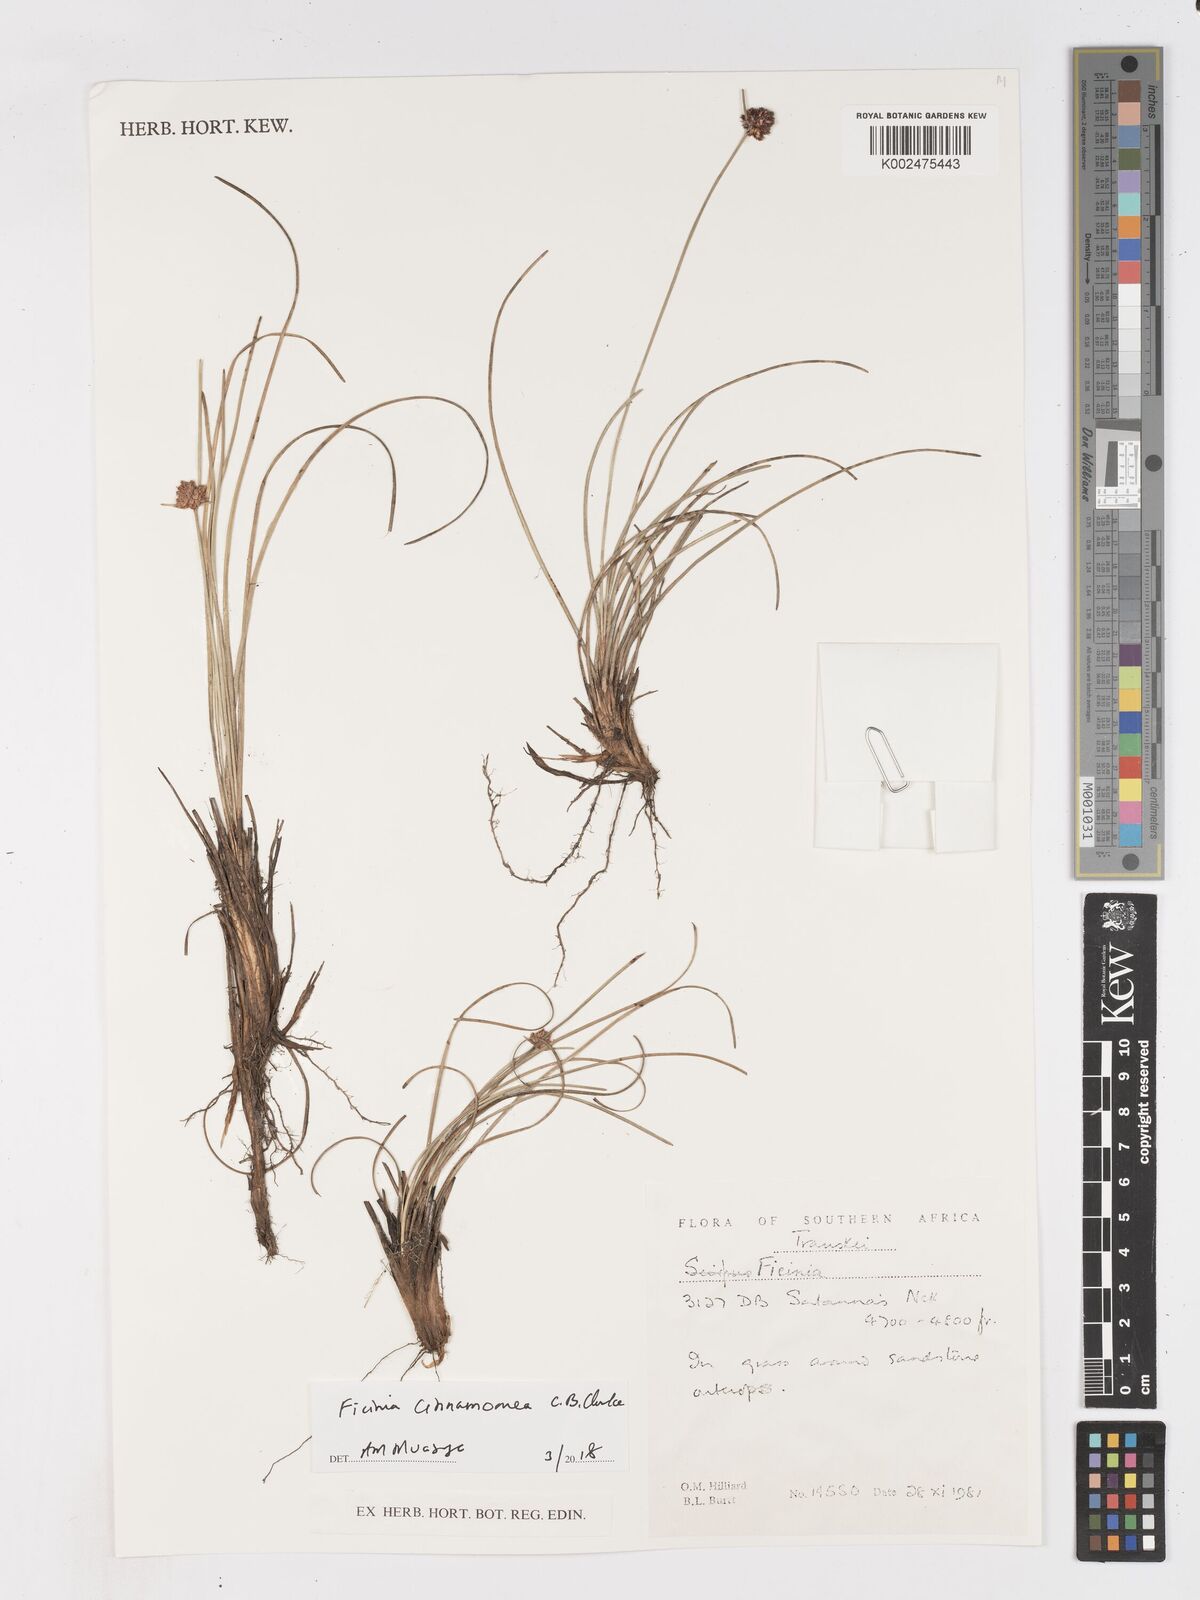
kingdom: Plantae
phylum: Tracheophyta
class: Liliopsida
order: Poales
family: Cyperaceae
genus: Ficinia
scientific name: Ficinia cinnamomea
